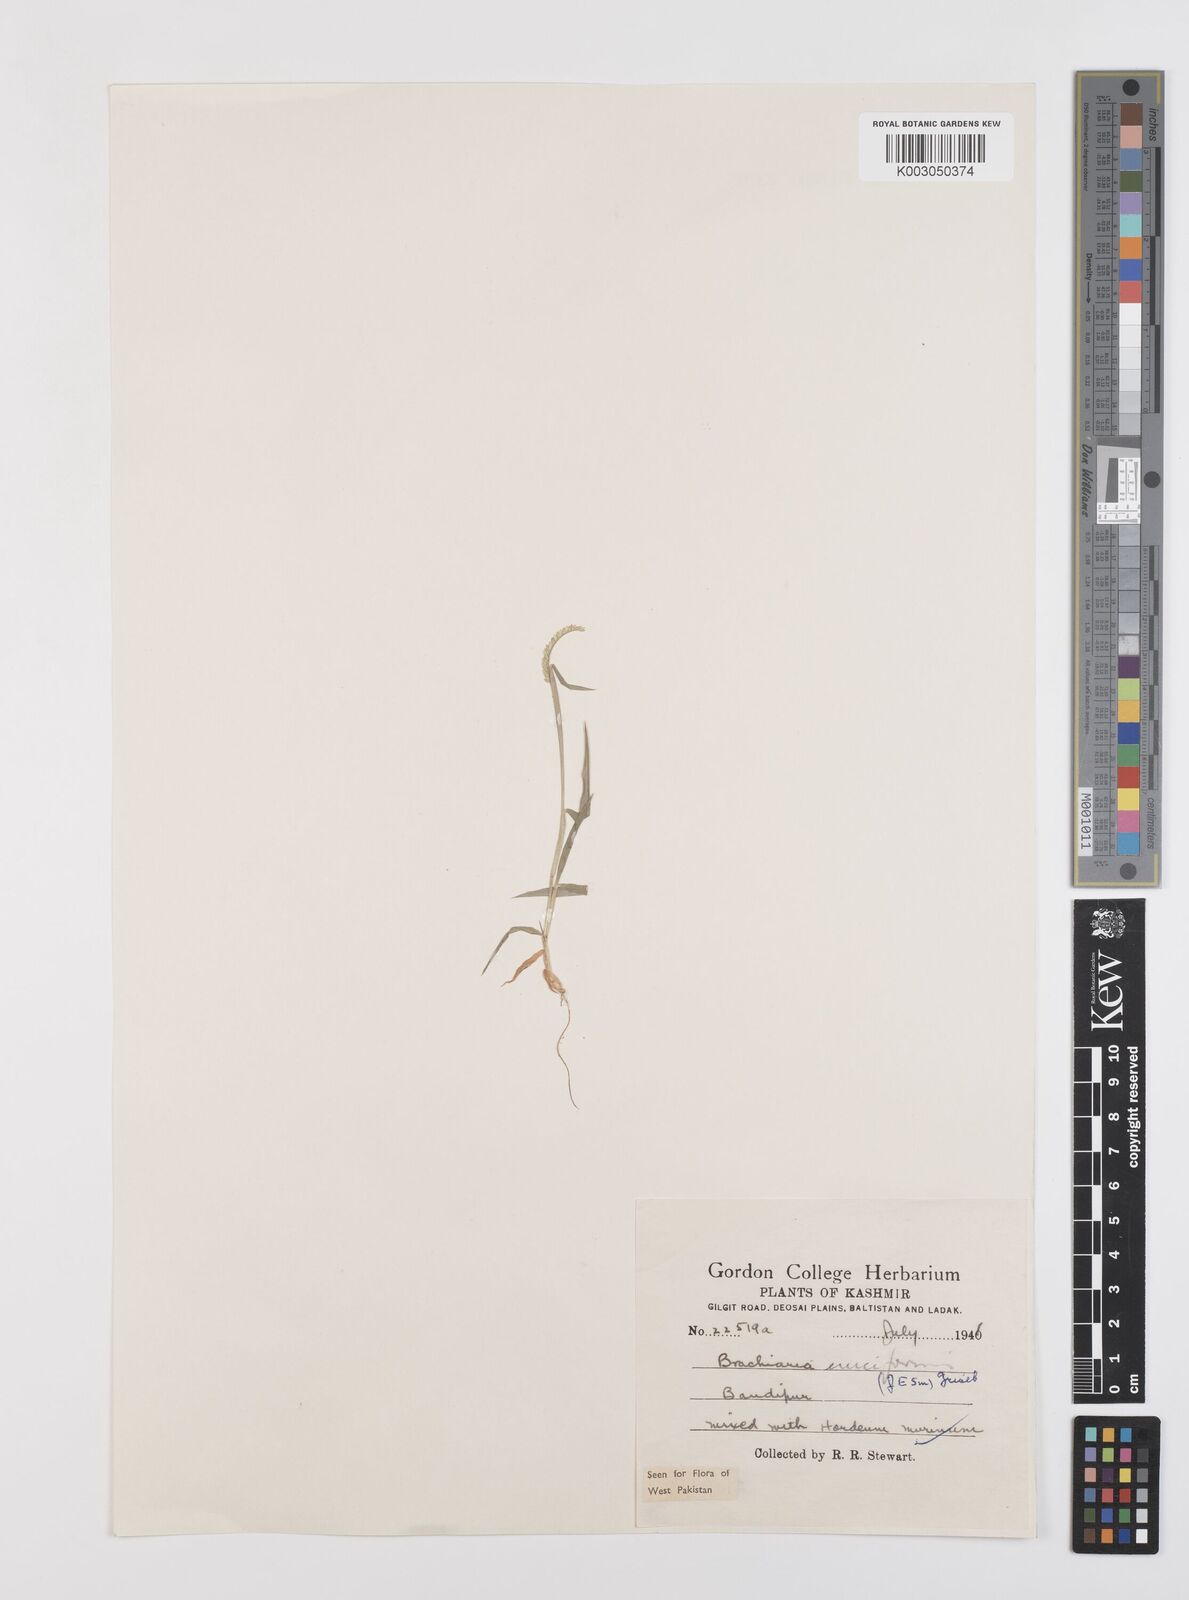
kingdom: Plantae
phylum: Tracheophyta
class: Liliopsida
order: Poales
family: Poaceae
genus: Moorochloa
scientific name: Moorochloa eruciformis
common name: Sweet signalgrass
